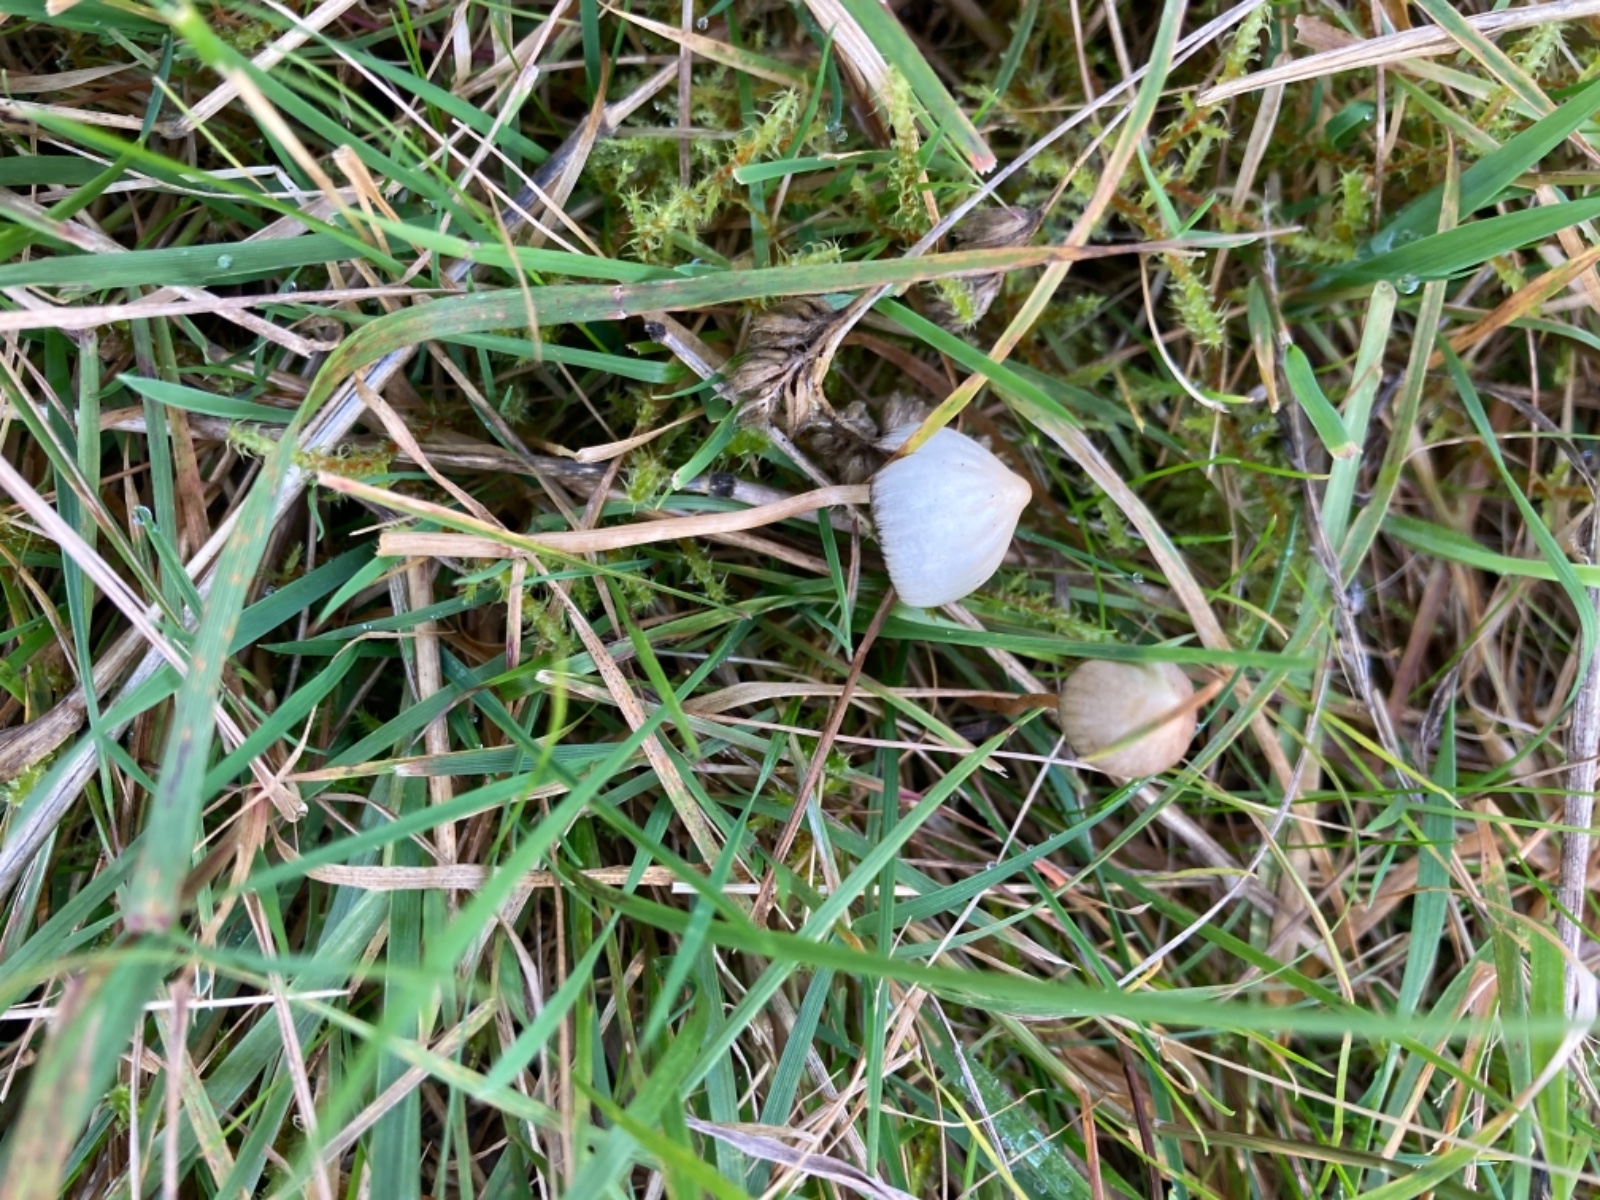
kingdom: Fungi
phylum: Basidiomycota
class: Agaricomycetes
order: Agaricales
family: Hymenogastraceae
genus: Psilocybe
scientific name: Psilocybe semilanceata
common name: spids nøgenhat
